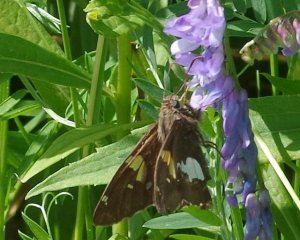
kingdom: Animalia
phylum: Arthropoda
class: Insecta
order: Lepidoptera
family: Hesperiidae
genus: Epargyreus
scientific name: Epargyreus clarus
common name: Silver-spotted Skipper
